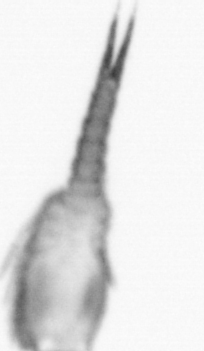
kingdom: Animalia
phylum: Arthropoda
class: Copepoda
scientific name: Copepoda
